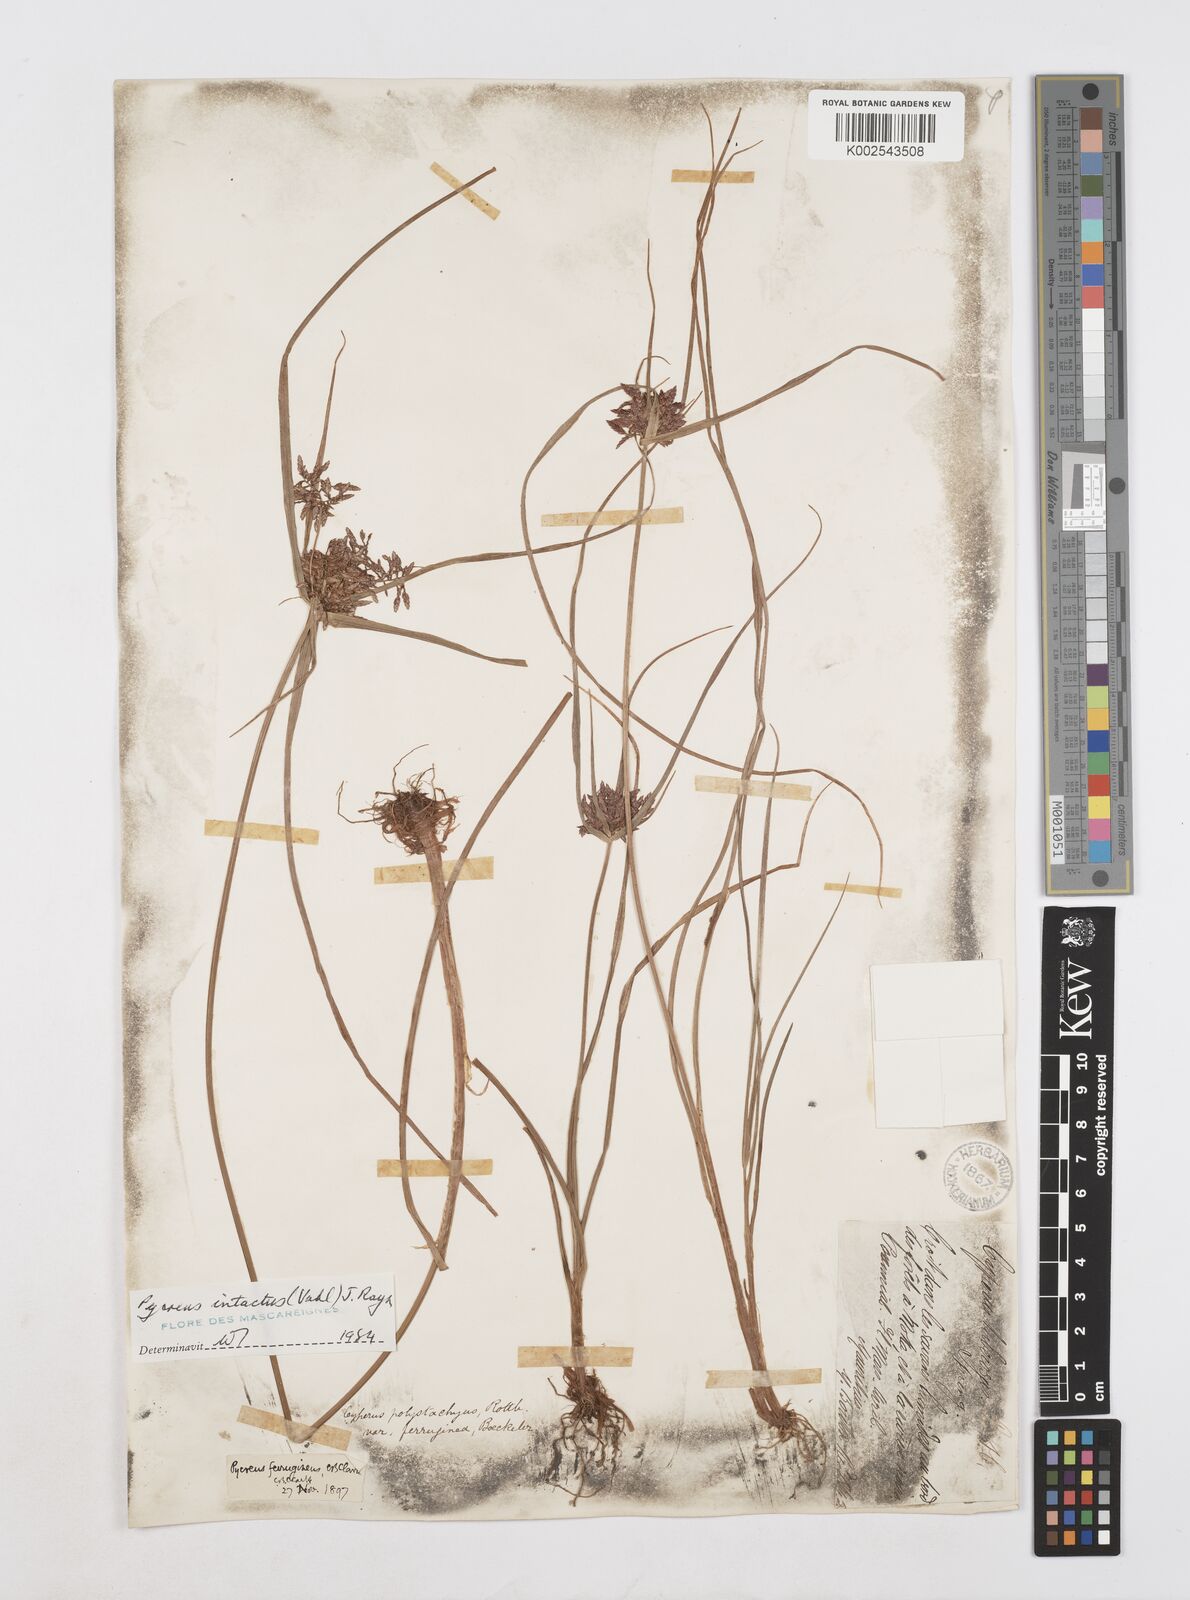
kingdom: Plantae
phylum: Tracheophyta
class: Liliopsida
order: Poales
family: Cyperaceae
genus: Cyperus
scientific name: Cyperus intactus
